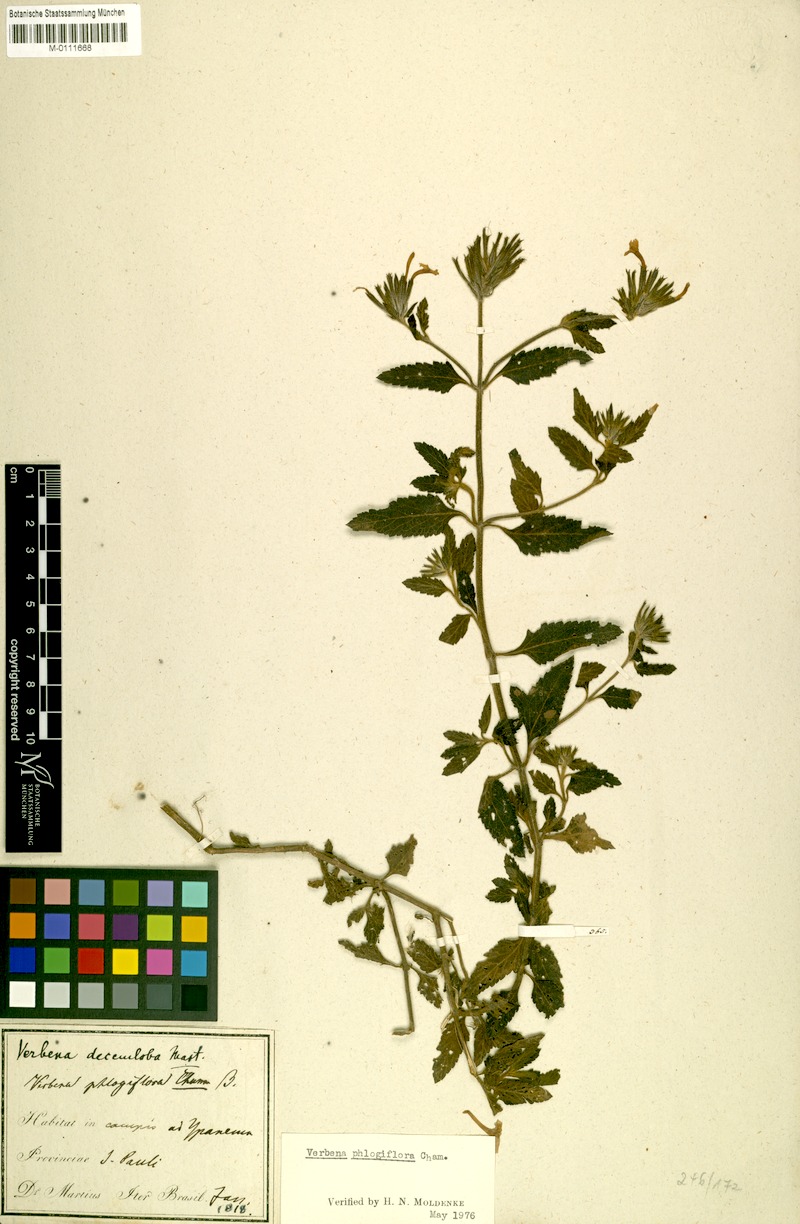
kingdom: Plantae
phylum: Tracheophyta
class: Magnoliopsida
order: Lamiales
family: Verbenaceae
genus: Verbena
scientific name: Verbena phlogiflora
